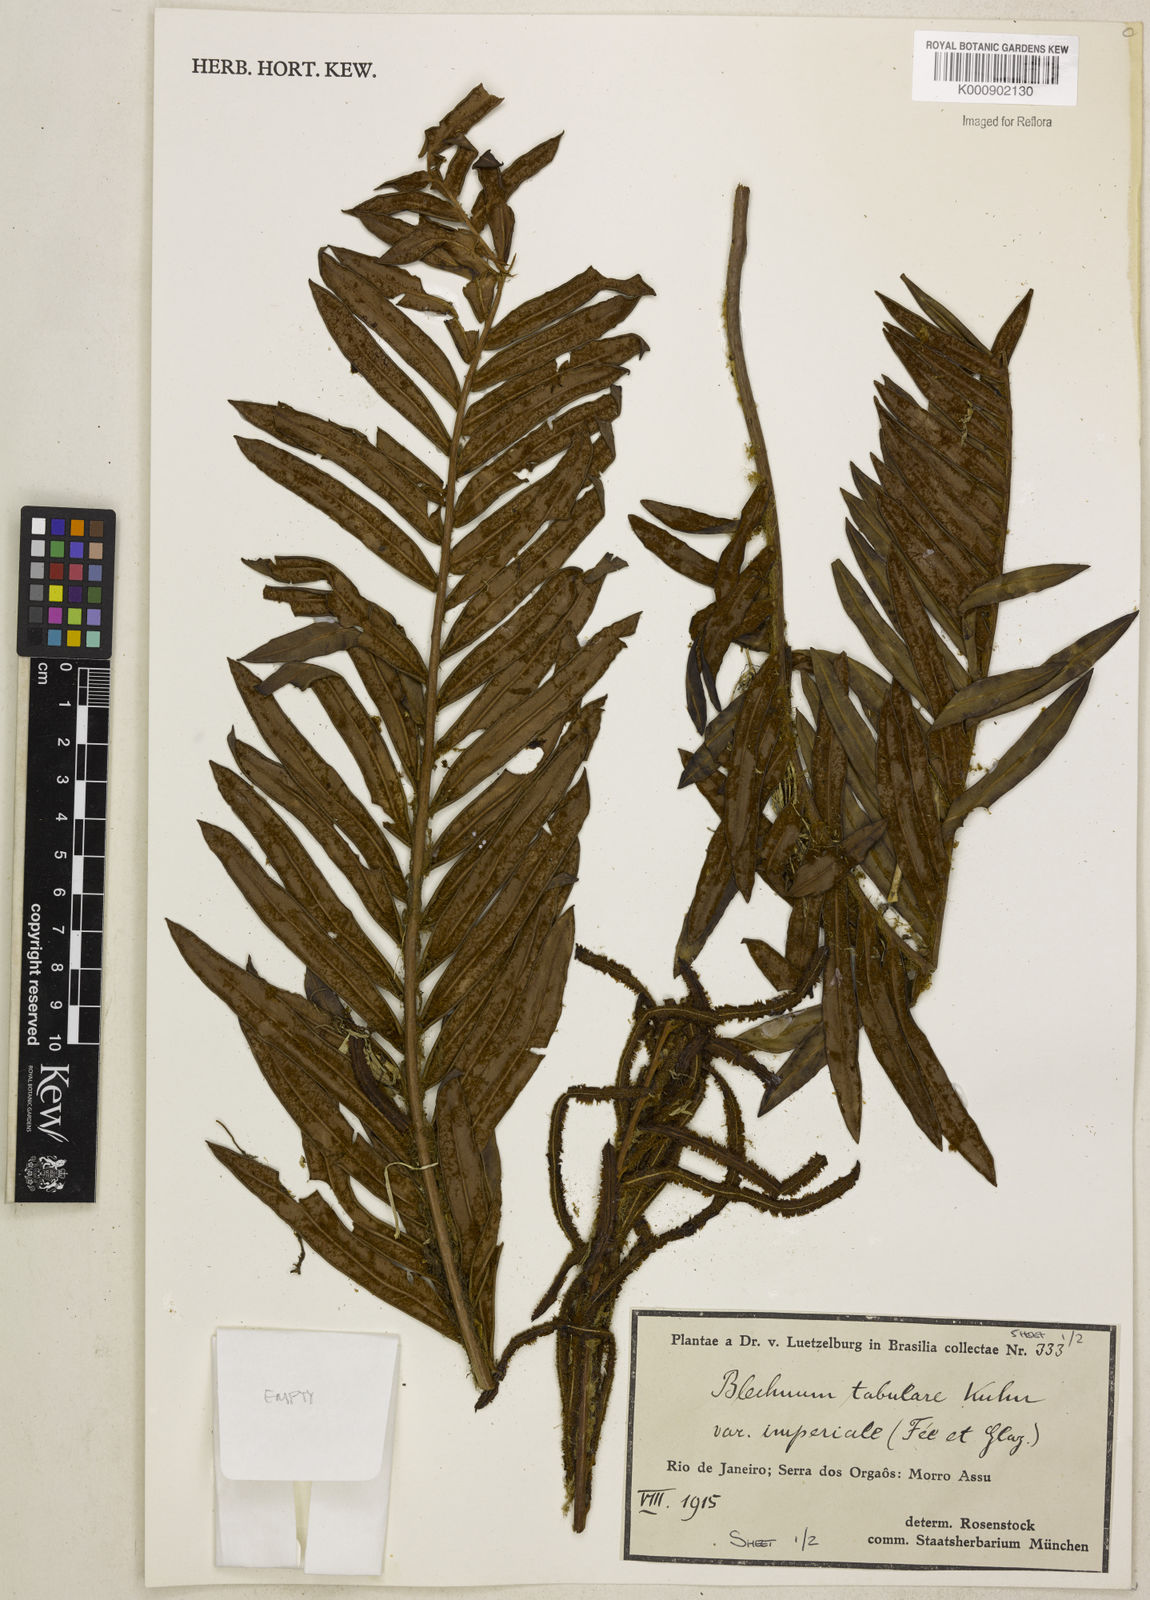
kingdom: Plantae
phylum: Tracheophyta
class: Polypodiopsida
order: Polypodiales
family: Blechnaceae
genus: Lomariocycas
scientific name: Lomariocycas obtusifolia
